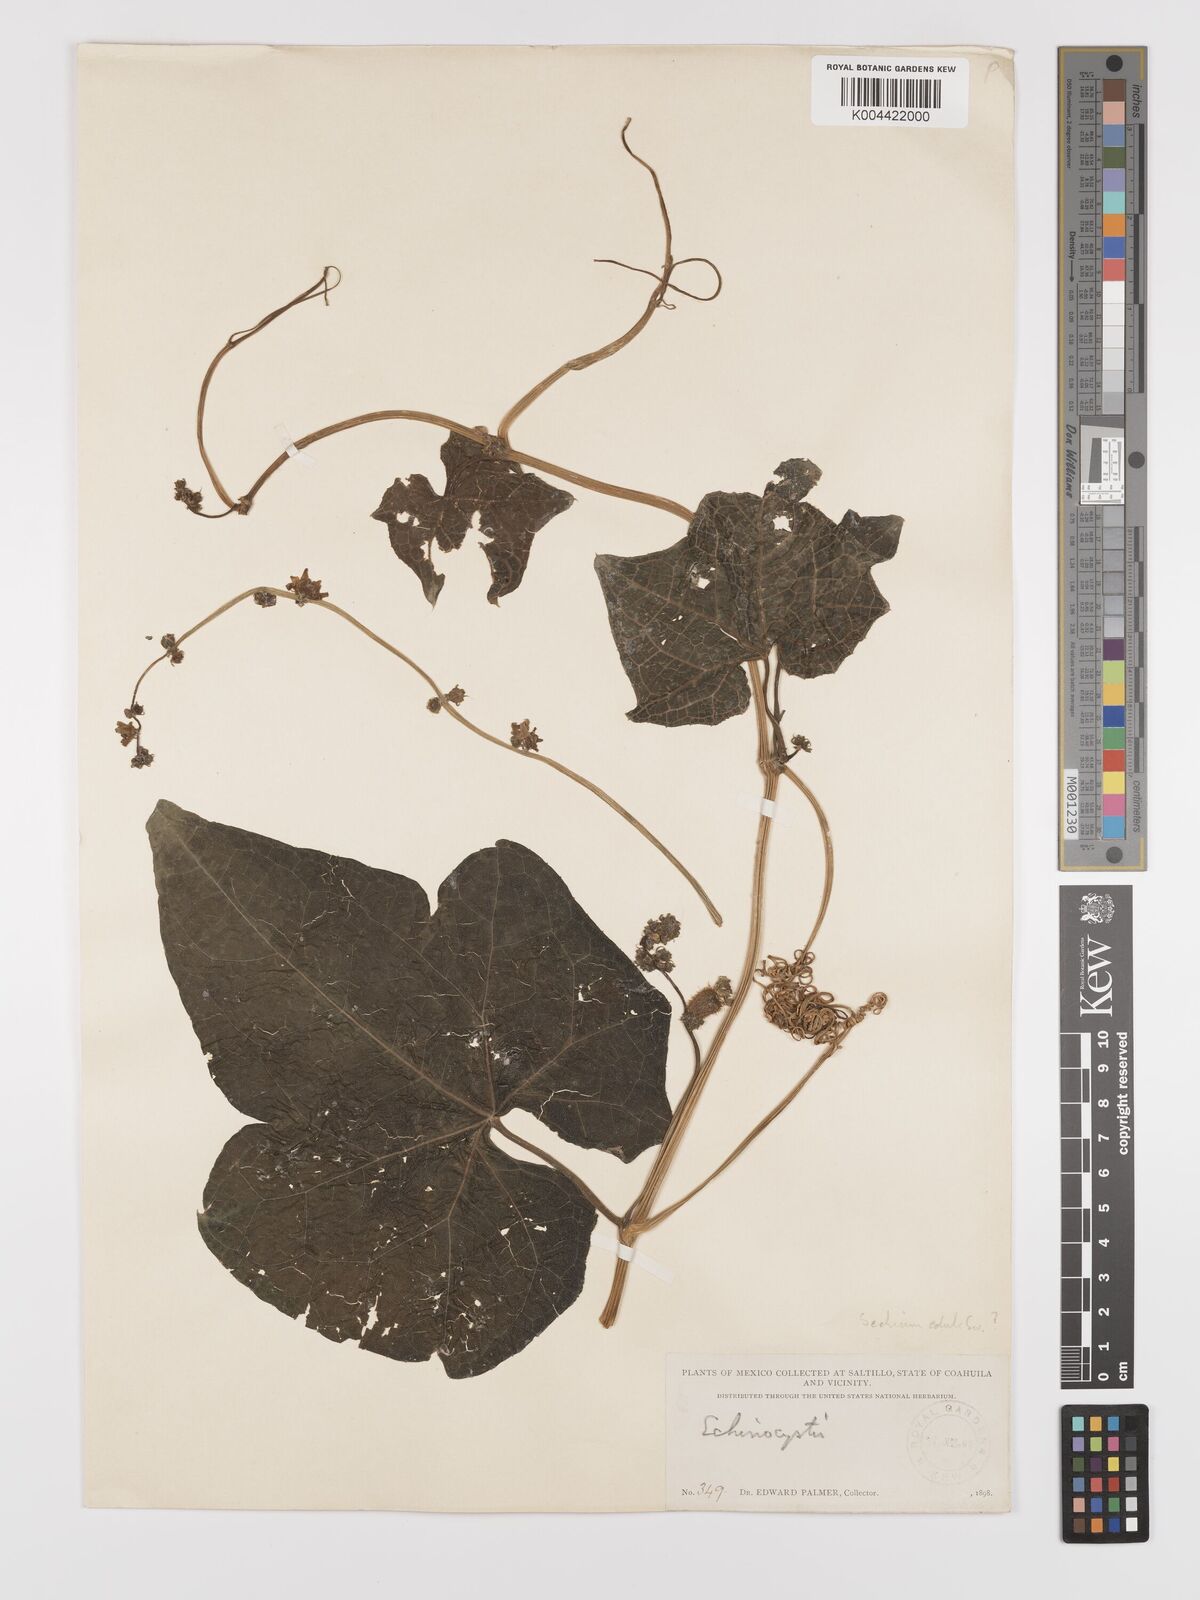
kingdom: Plantae
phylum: Tracheophyta
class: Magnoliopsida
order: Cucurbitales
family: Cucurbitaceae
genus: Sechium
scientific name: Sechium edule
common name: Chayote
